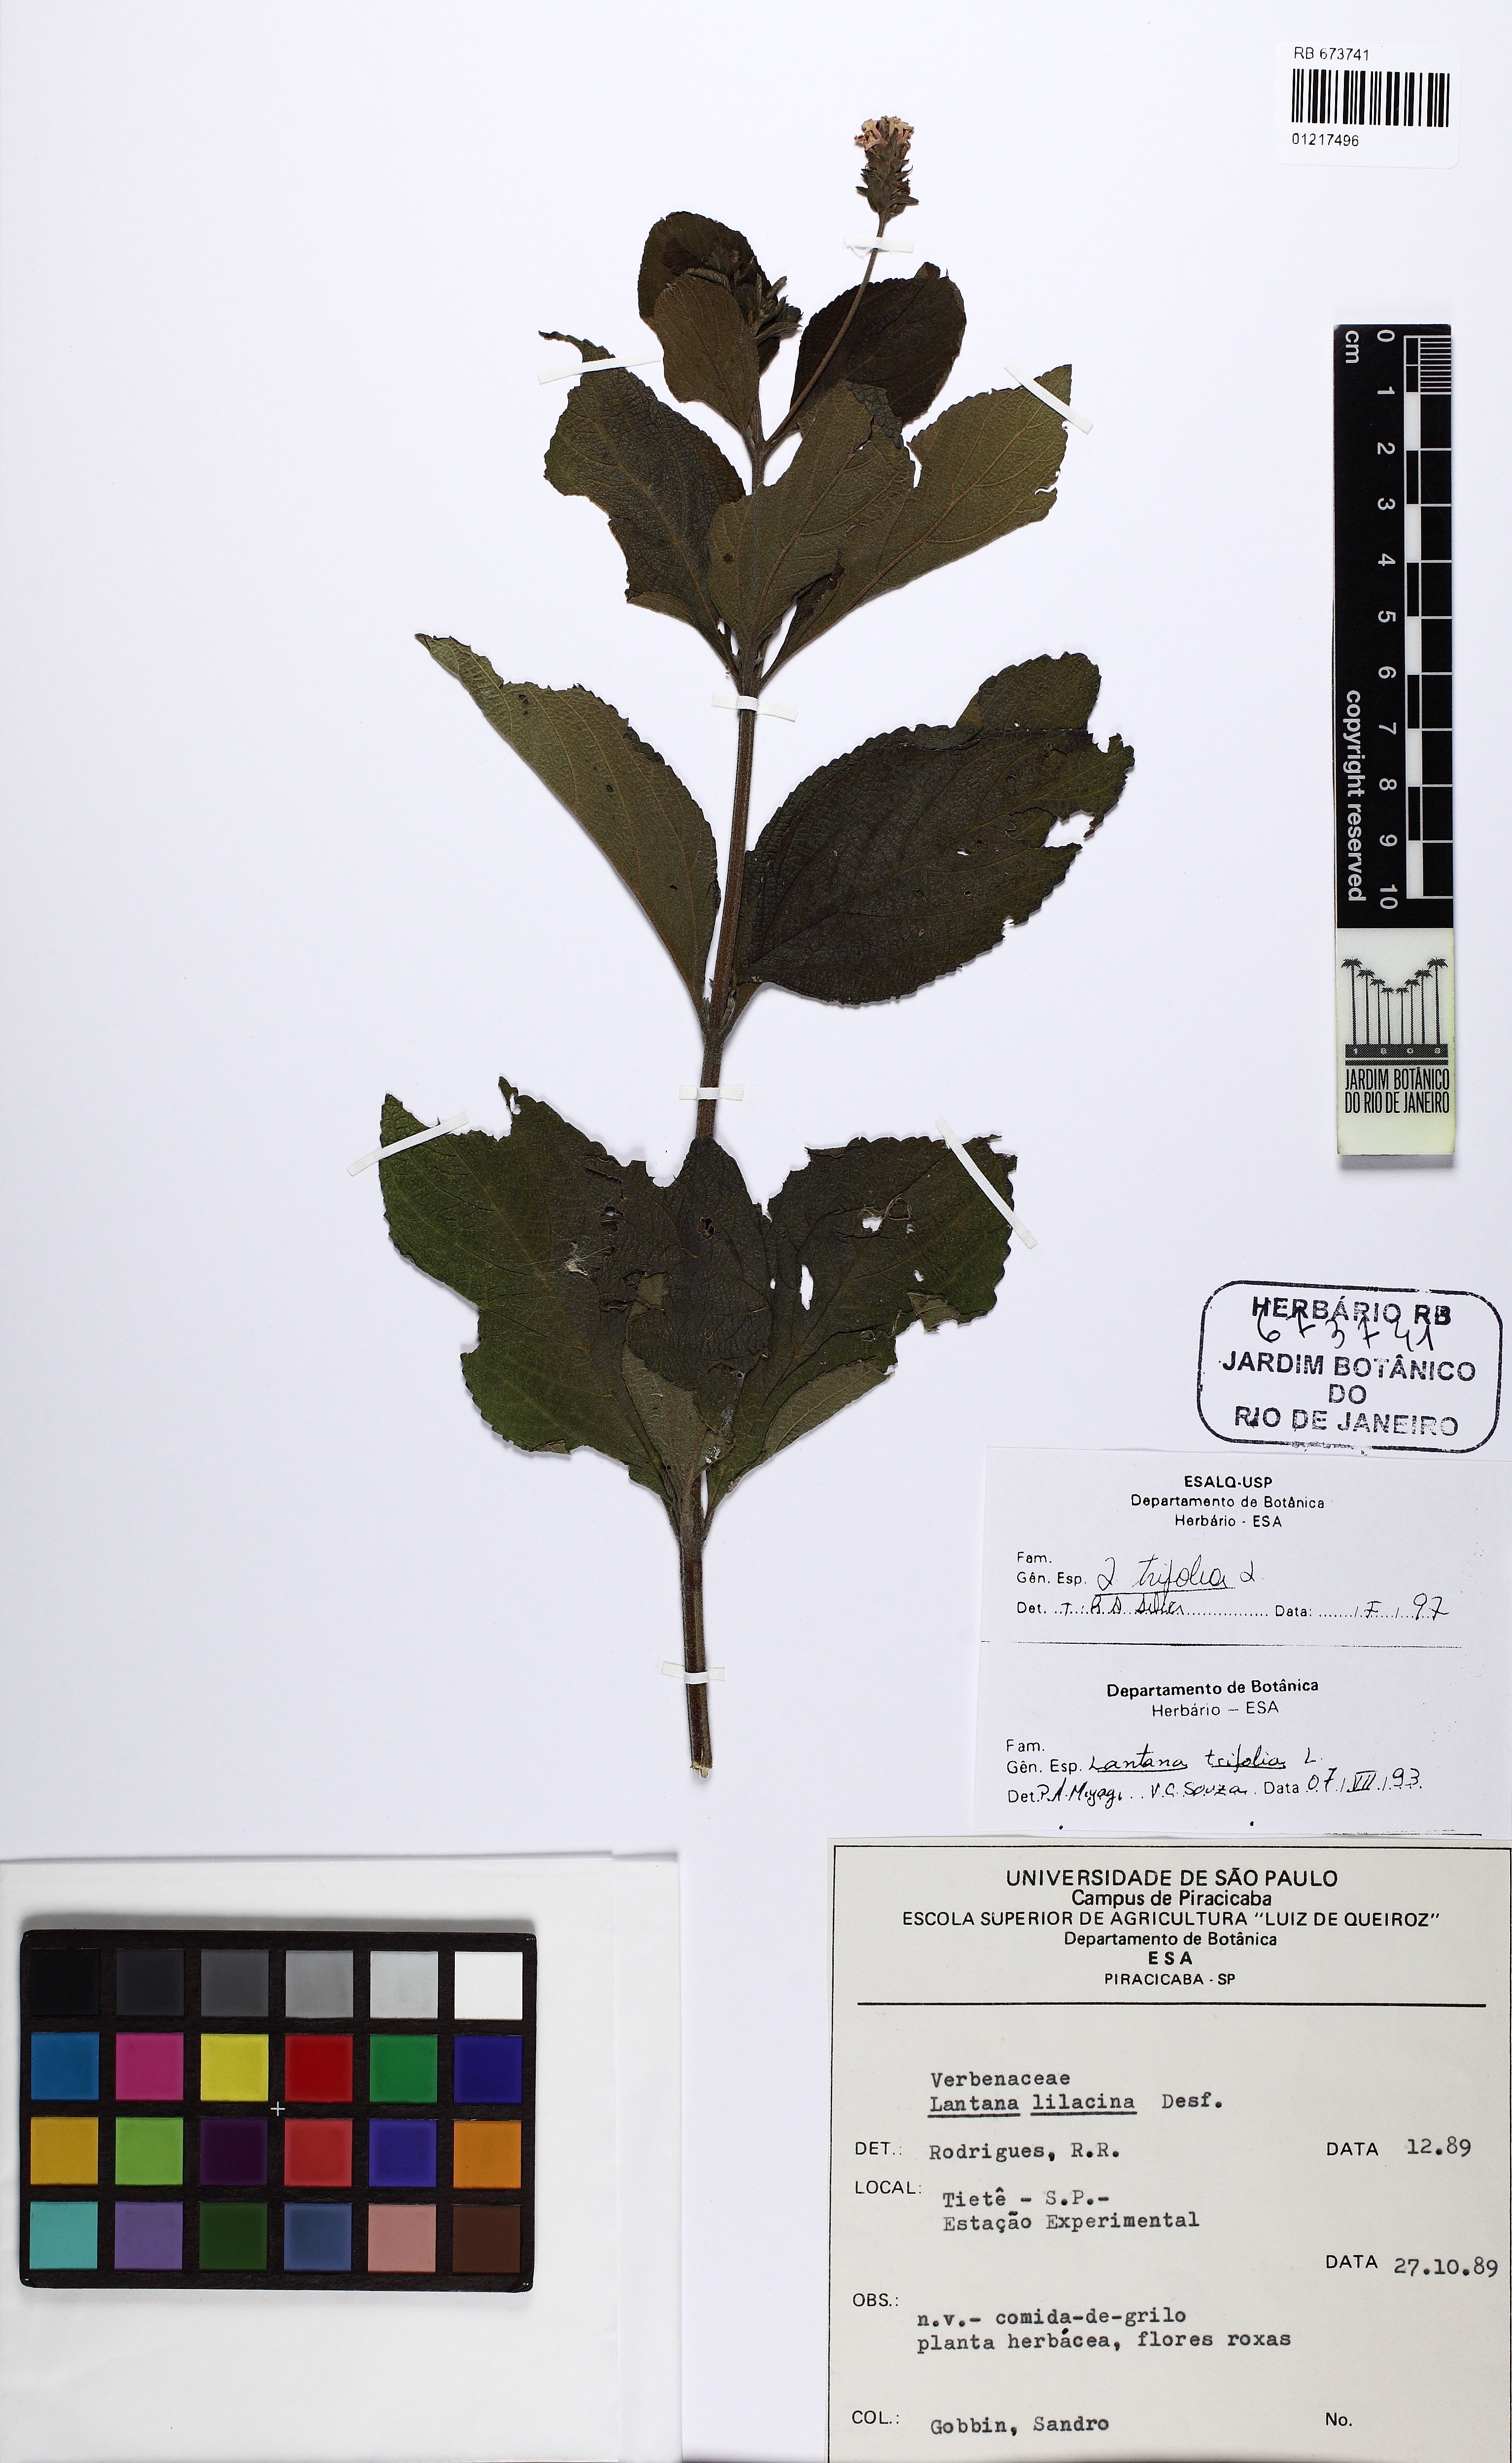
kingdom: Plantae
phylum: Tracheophyta
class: Magnoliopsida
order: Lamiales
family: Verbenaceae
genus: Lantana
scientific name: Lantana trifolia
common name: Sweet-sage
